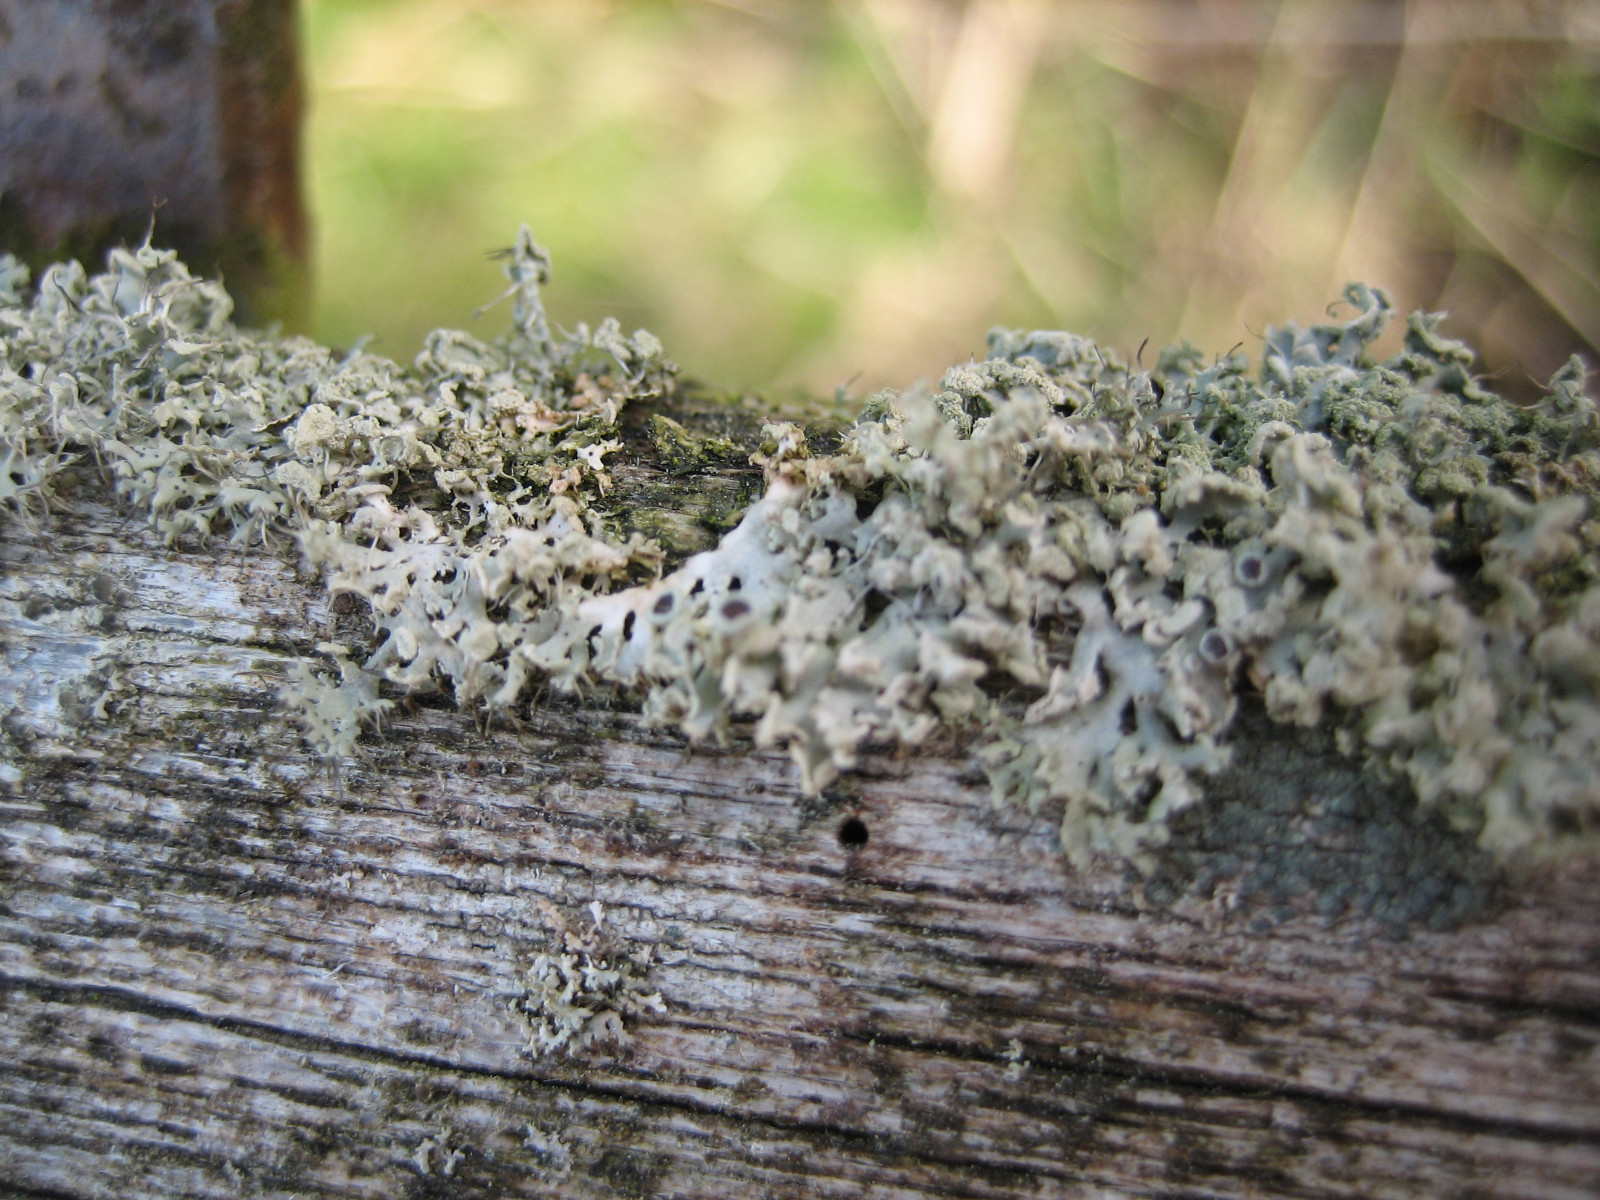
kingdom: Fungi
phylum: Ascomycota
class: Lecanoromycetes
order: Caliciales
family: Physciaceae
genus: Physcia
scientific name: Physcia tenella
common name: spæd rosetlav
